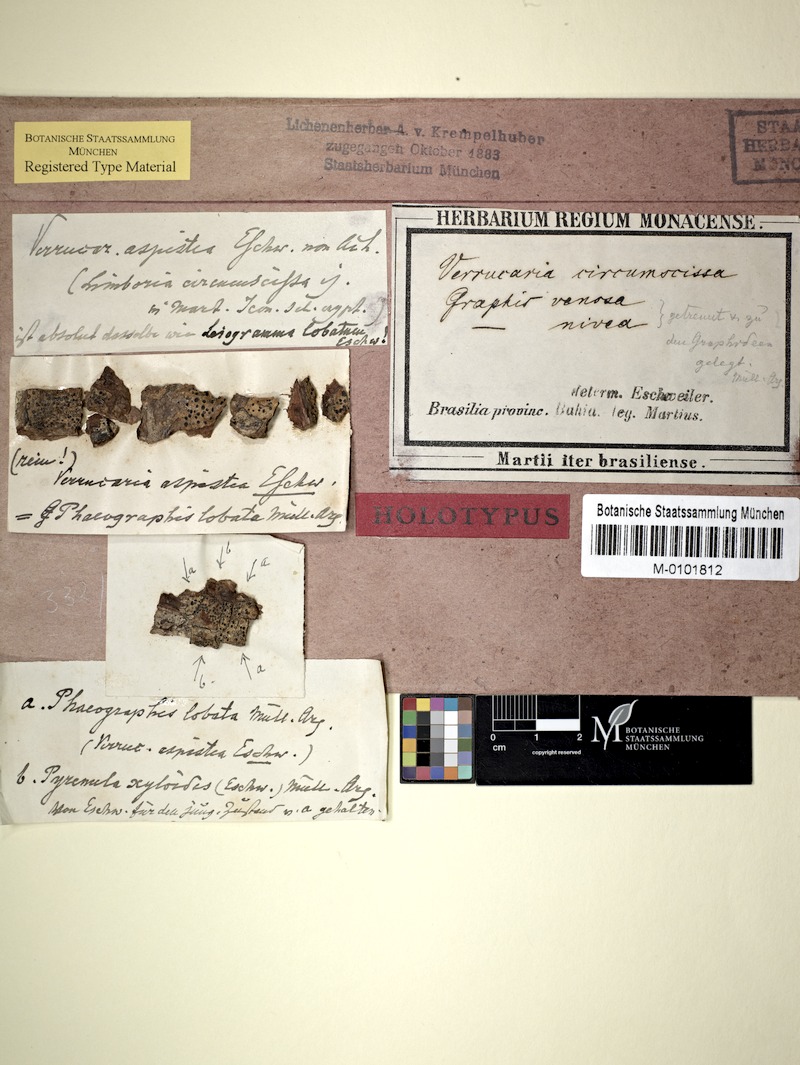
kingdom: Fungi
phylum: Ascomycota
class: Lecanoromycetes
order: Ostropales
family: Graphidaceae
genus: Phaeographis
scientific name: Phaeographis lobata
